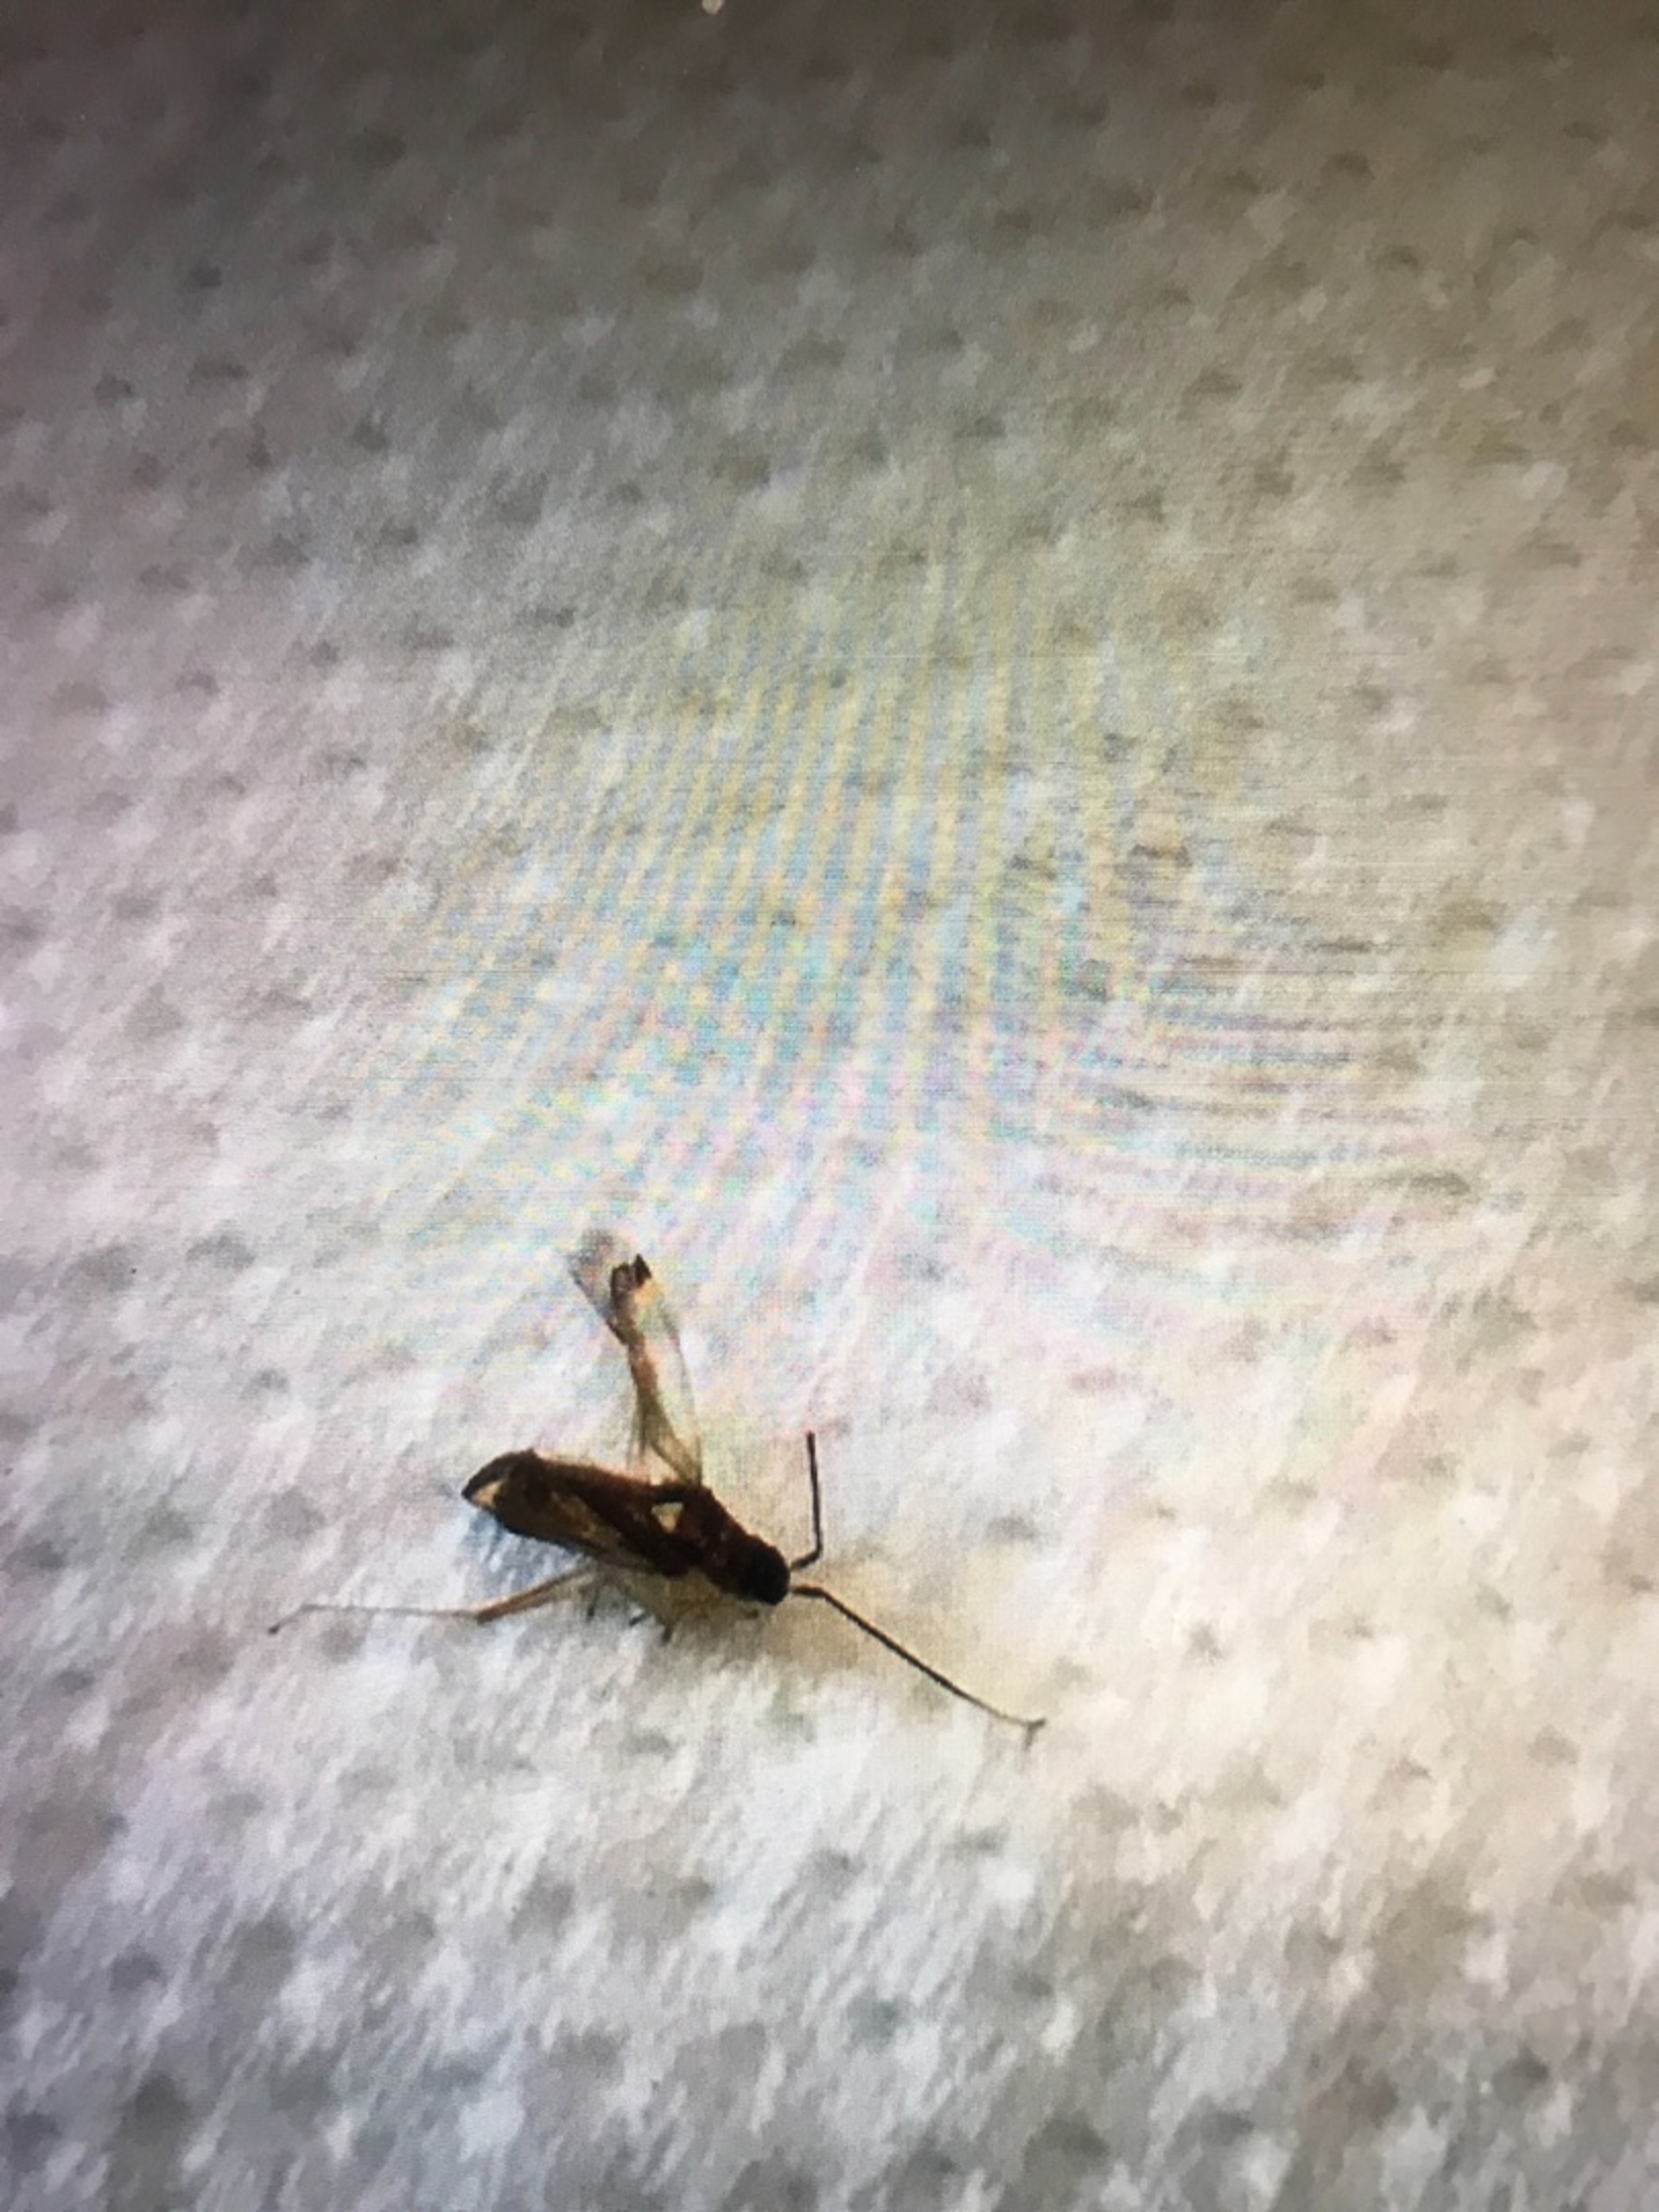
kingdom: Animalia
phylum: Arthropoda
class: Insecta
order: Hemiptera
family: Miridae
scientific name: Miridae
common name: Blomstertæger
